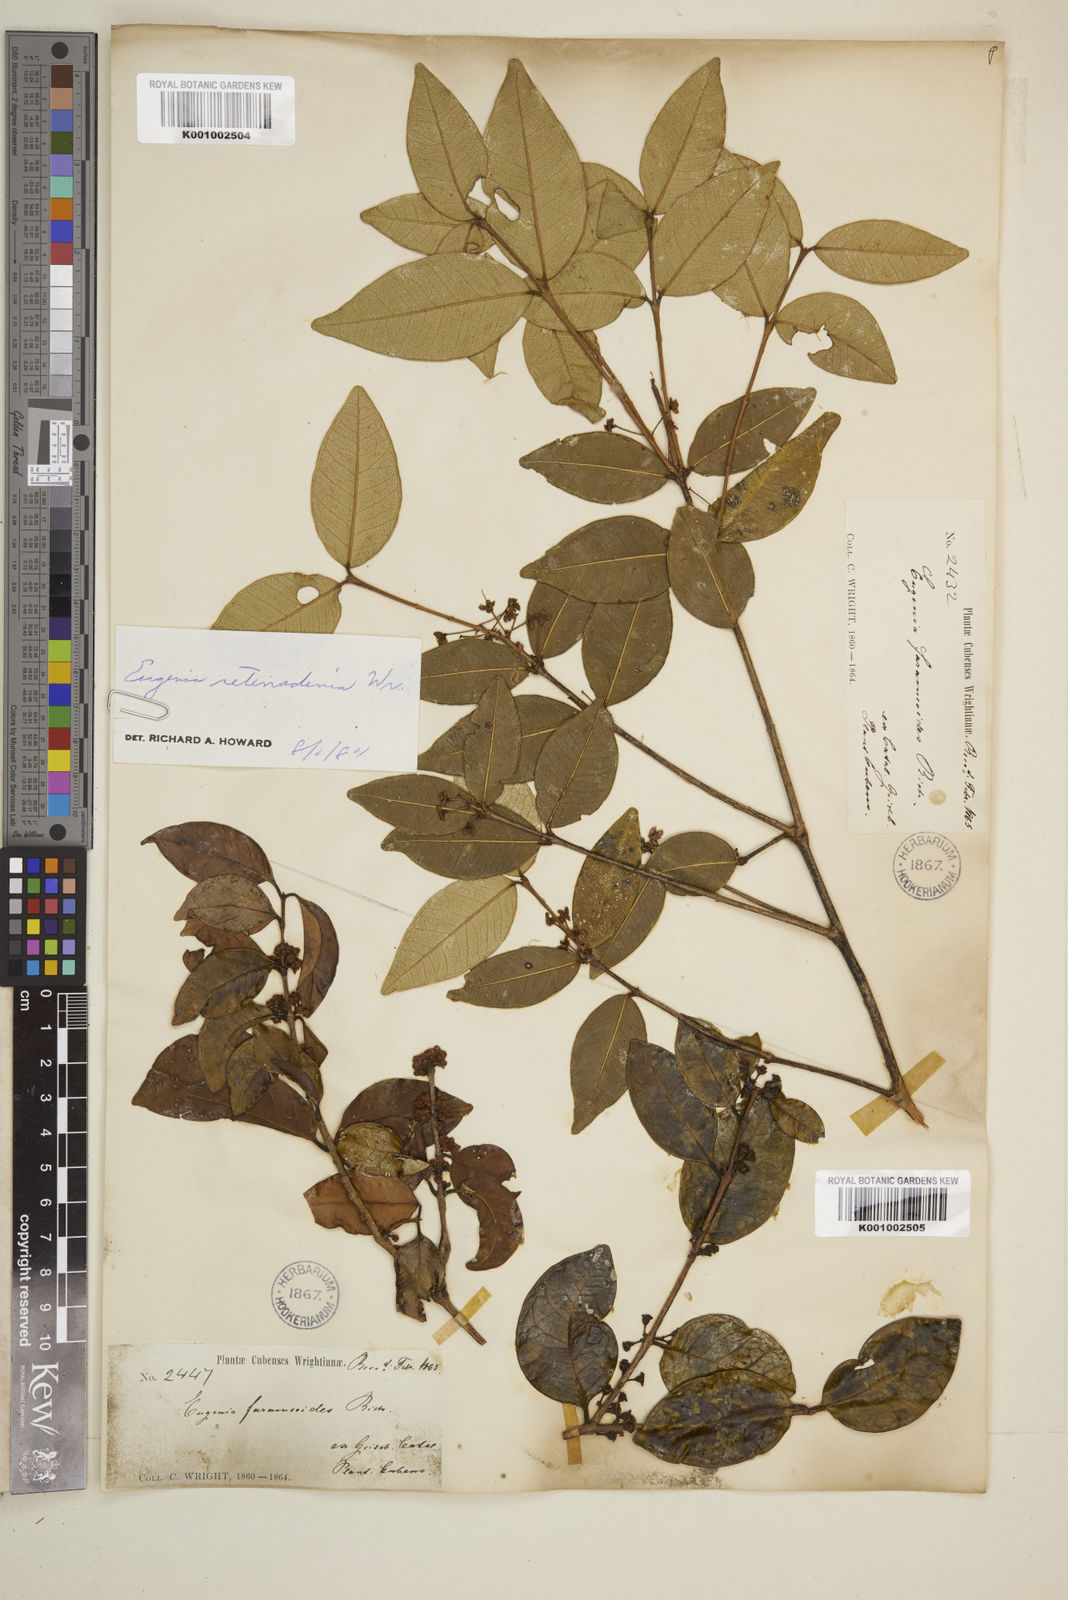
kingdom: Plantae
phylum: Tracheophyta
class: Magnoliopsida
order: Myrtales
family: Myrtaceae
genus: Eugenia
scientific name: Eugenia farameoides
